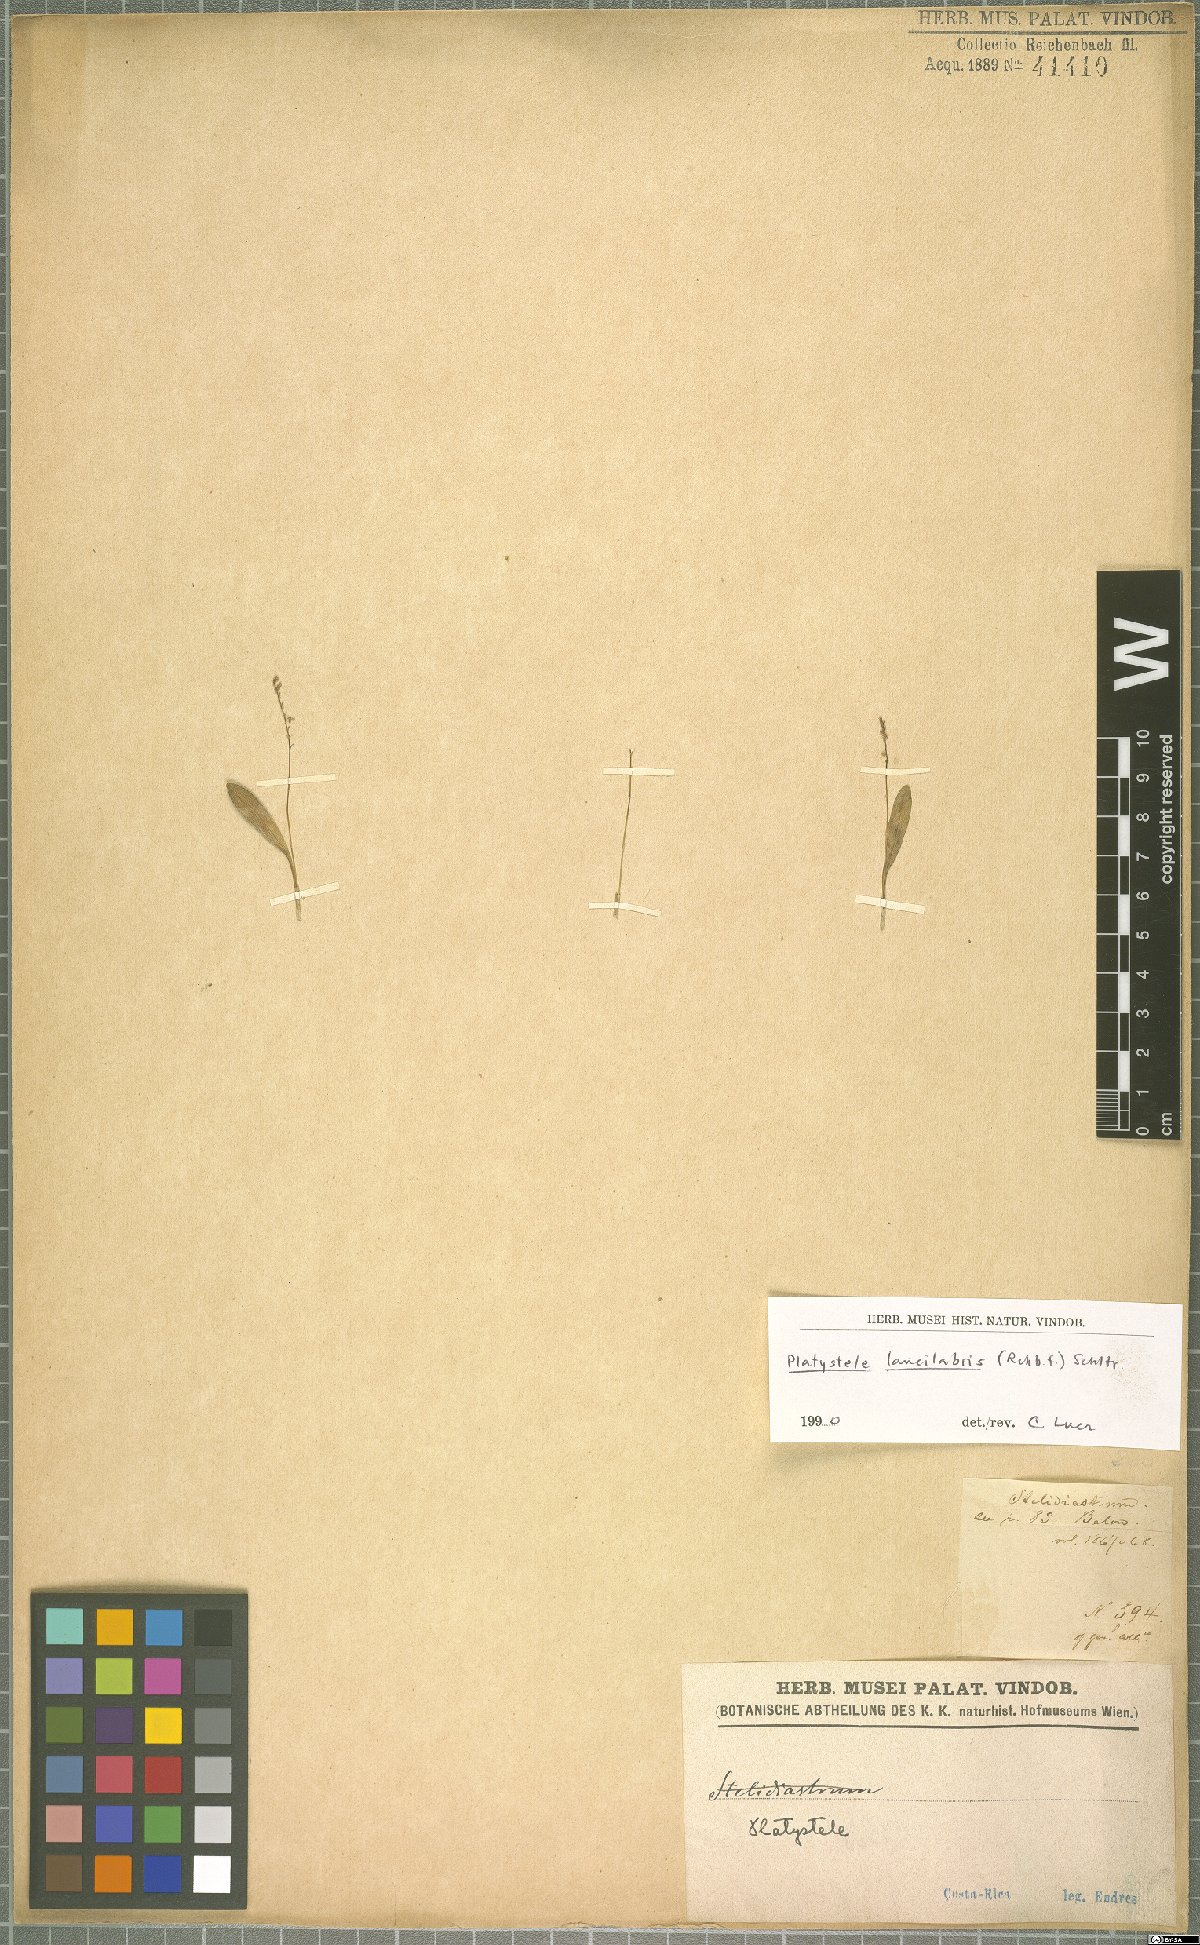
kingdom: Plantae
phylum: Tracheophyta
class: Liliopsida
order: Asparagales
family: Orchidaceae
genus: Platystele
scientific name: Platystele lancilabris
